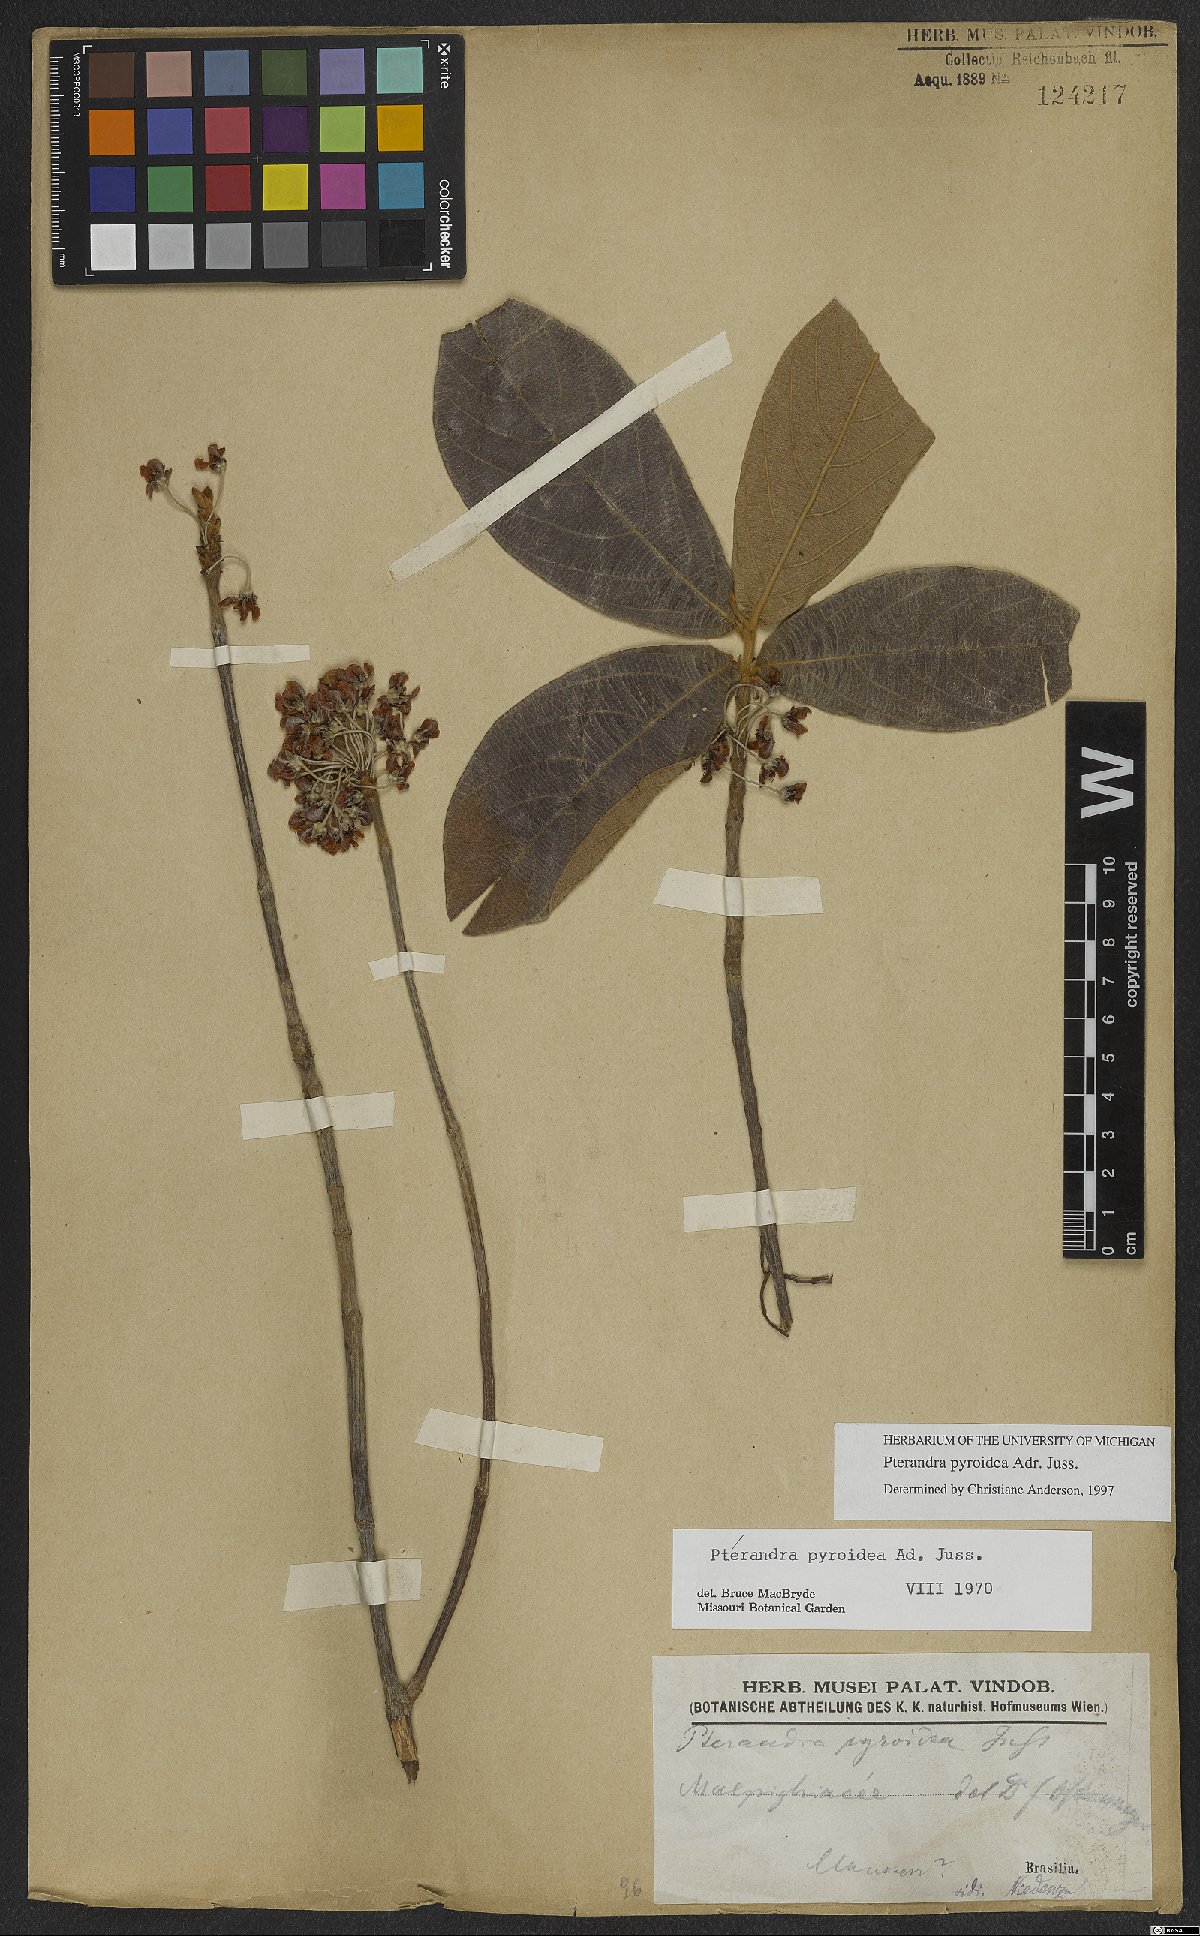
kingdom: Plantae
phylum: Tracheophyta
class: Magnoliopsida
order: Malpighiales
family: Malpighiaceae
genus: Pterandra
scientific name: Pterandra pyroidea
